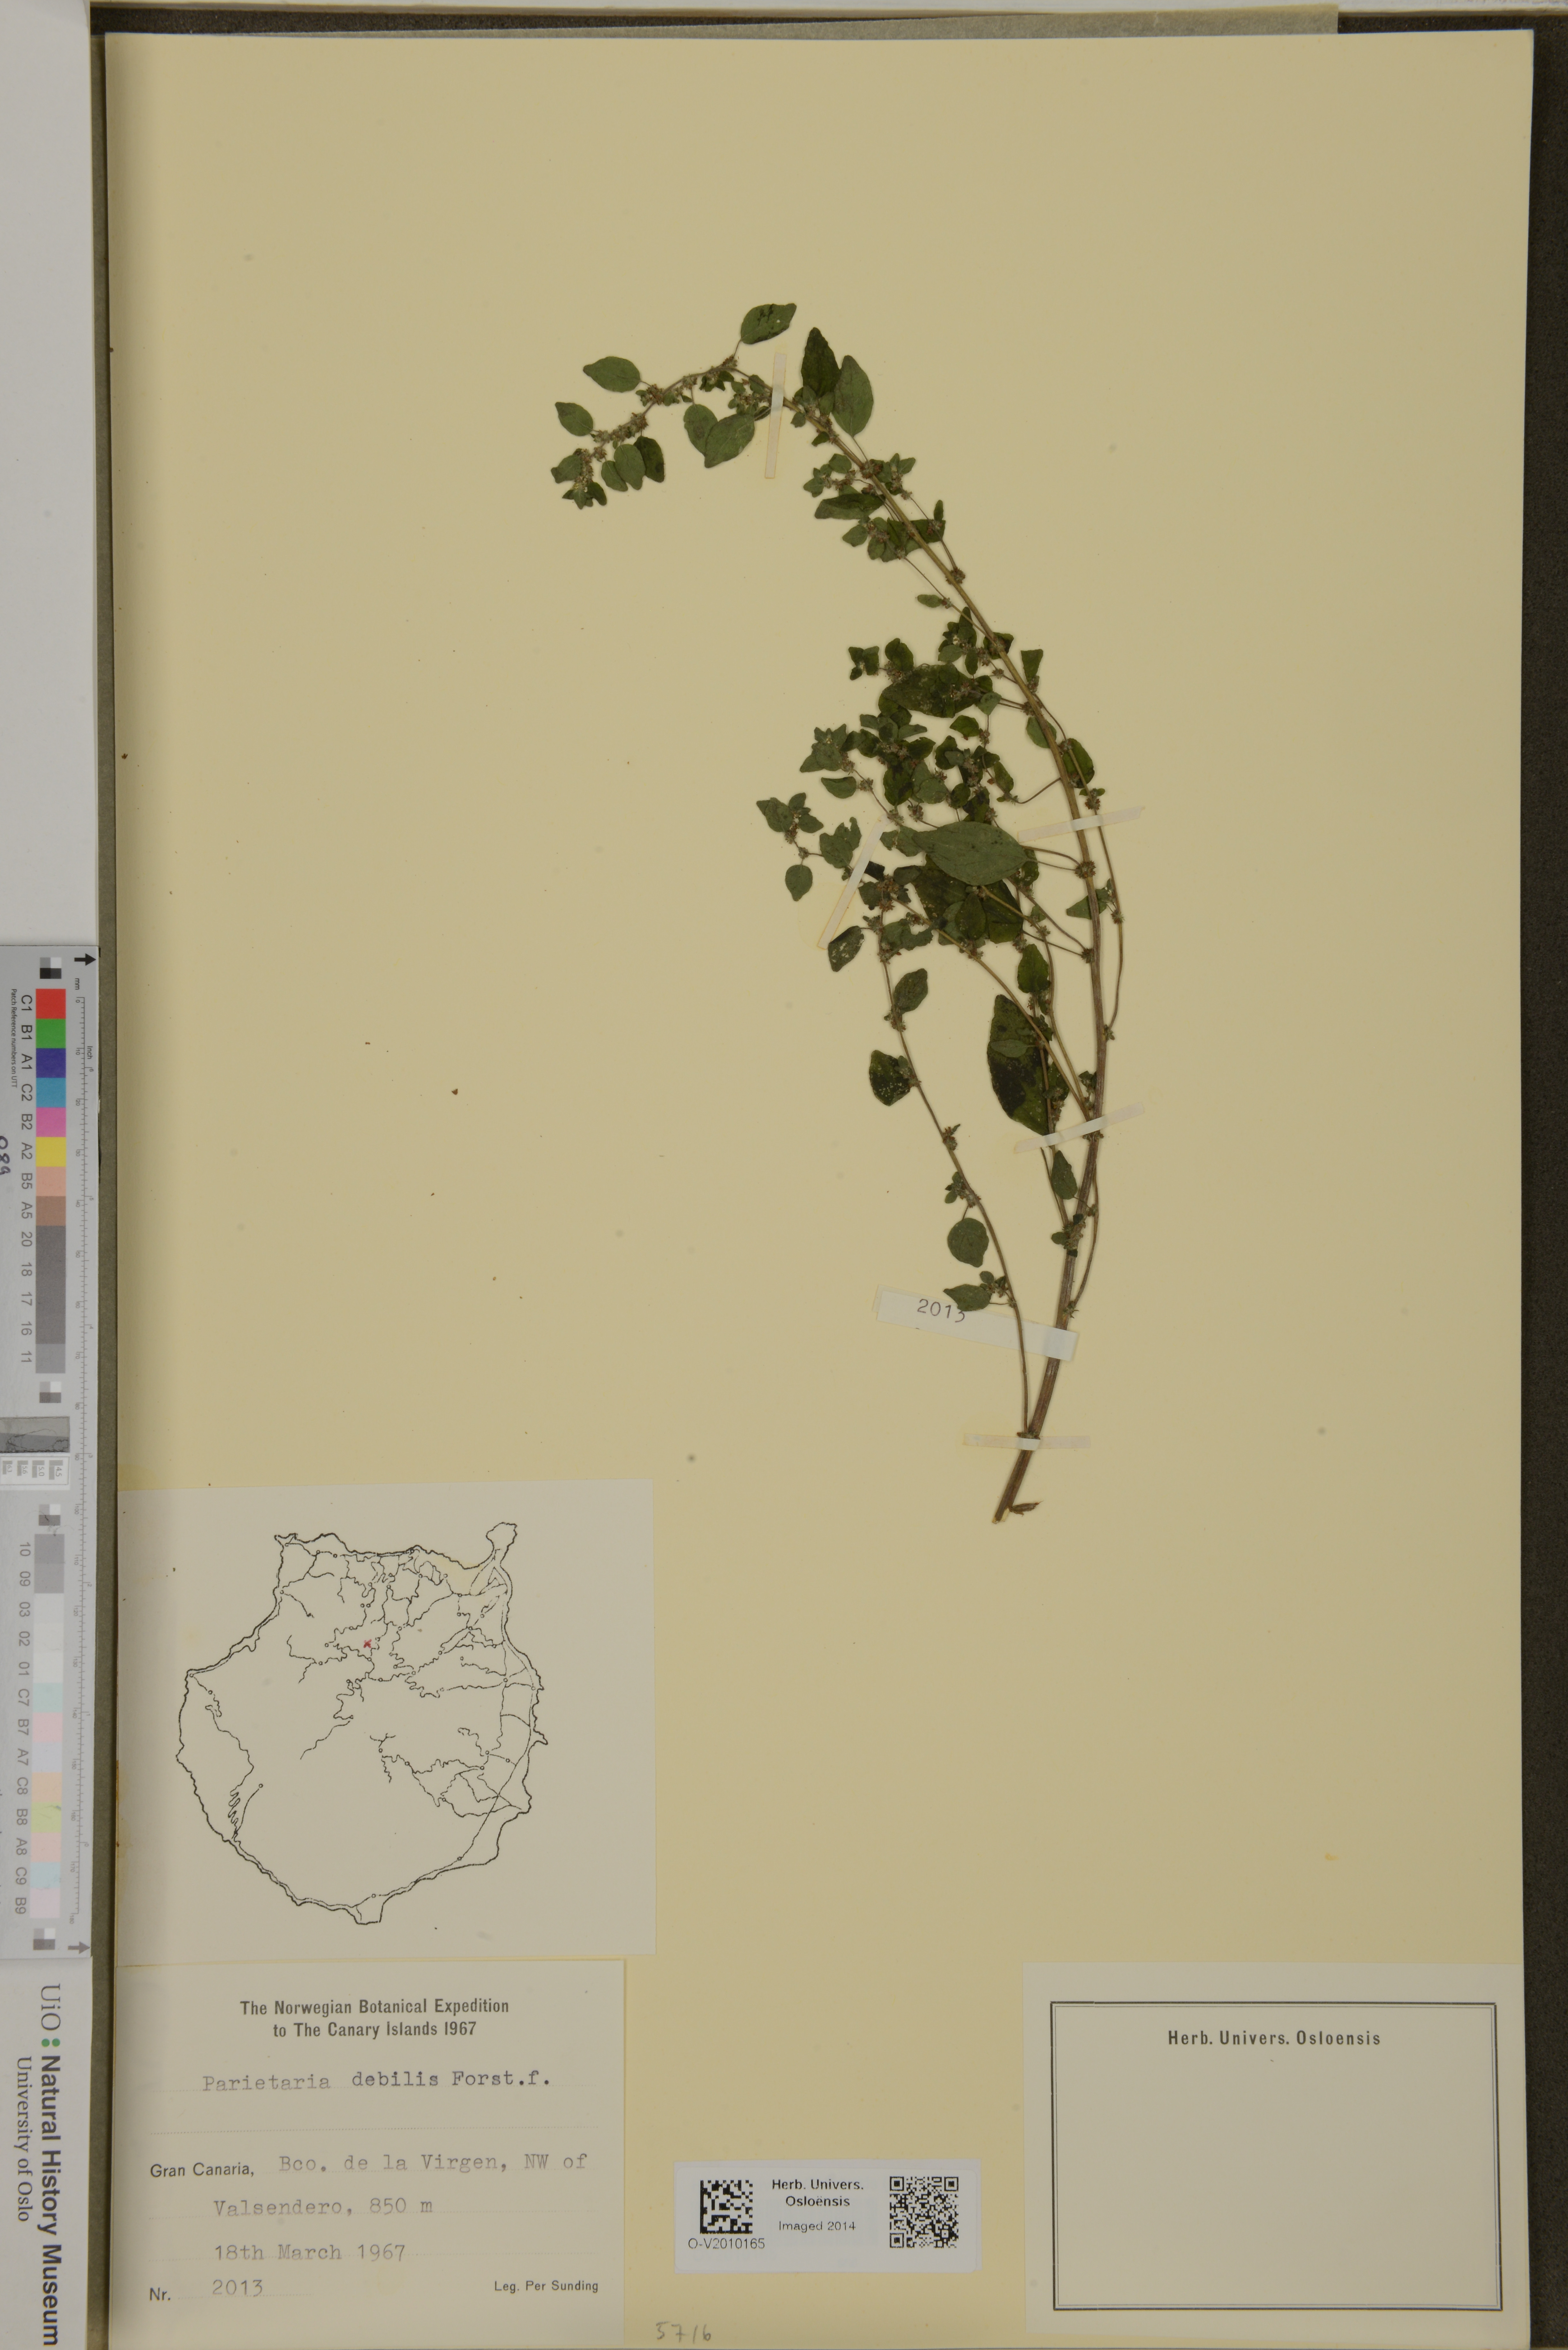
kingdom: Plantae
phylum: Tracheophyta
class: Magnoliopsida
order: Rosales
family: Urticaceae
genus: Parietaria
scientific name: Parietaria debilis
